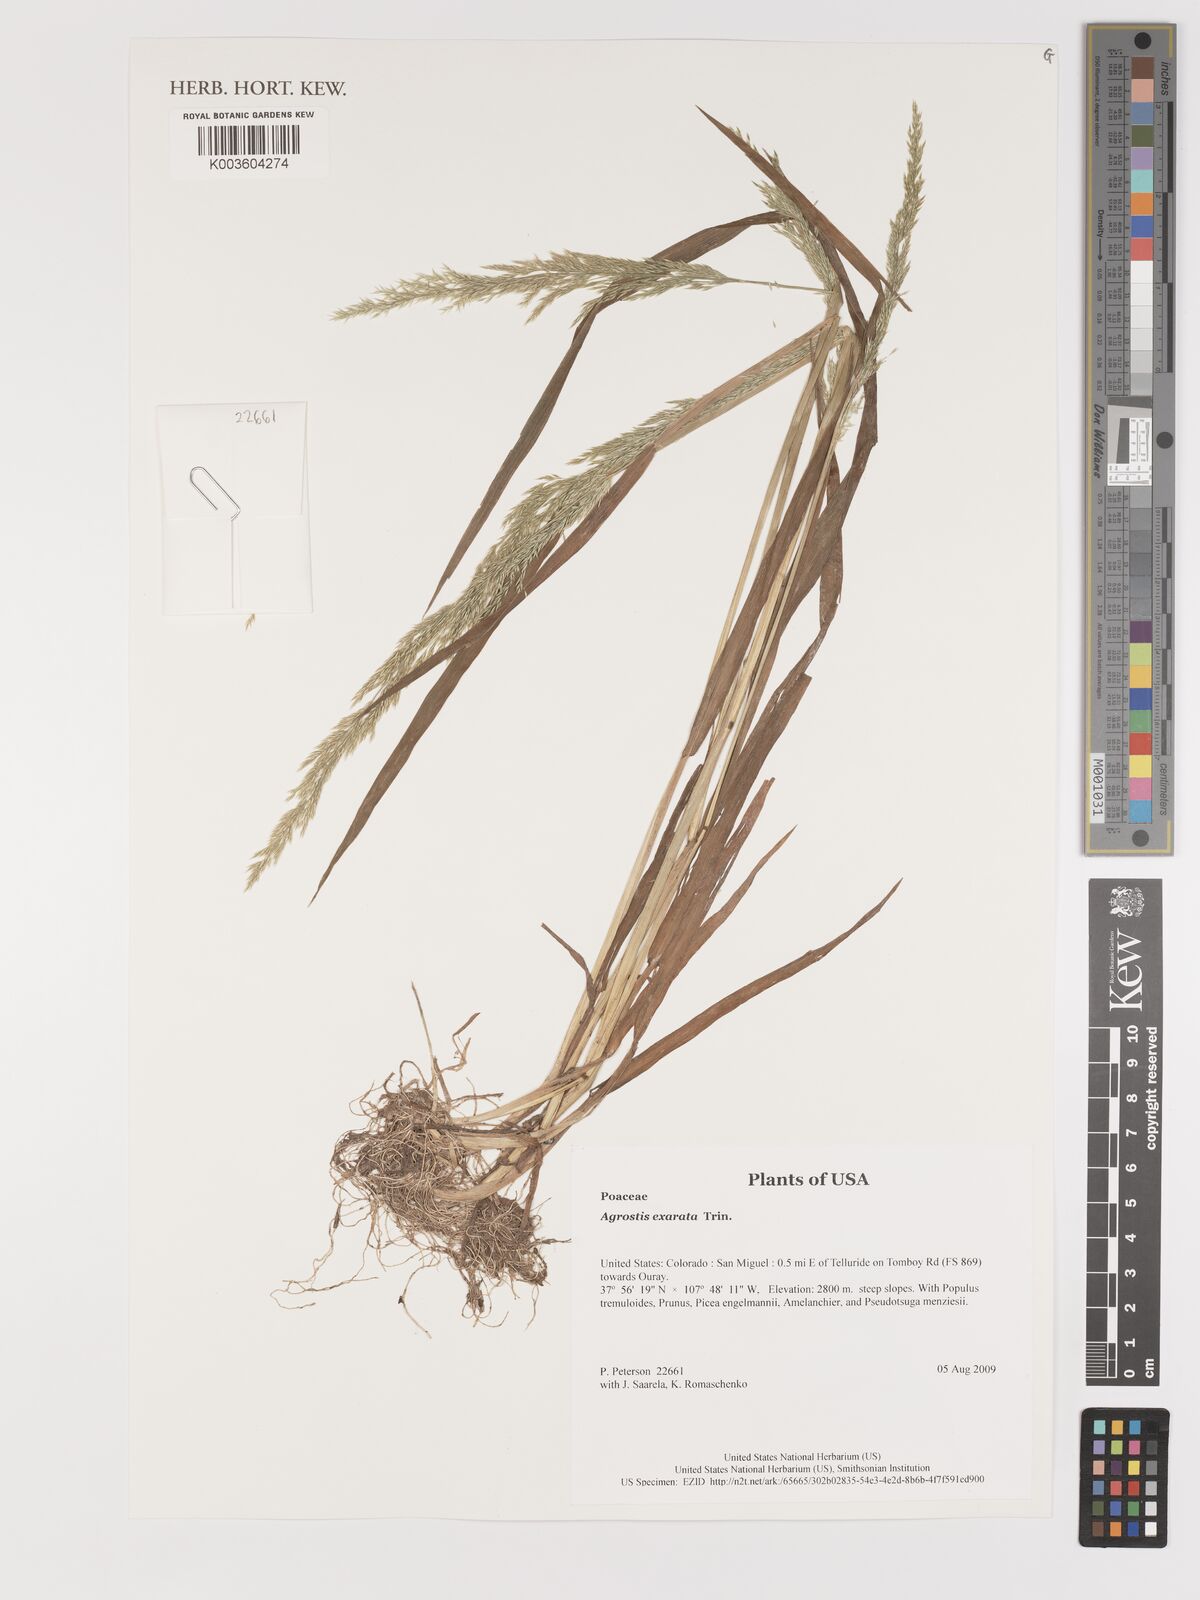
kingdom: Plantae
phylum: Tracheophyta
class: Liliopsida
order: Poales
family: Poaceae
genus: Agrostis
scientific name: Agrostis exarata
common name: Spike bent
